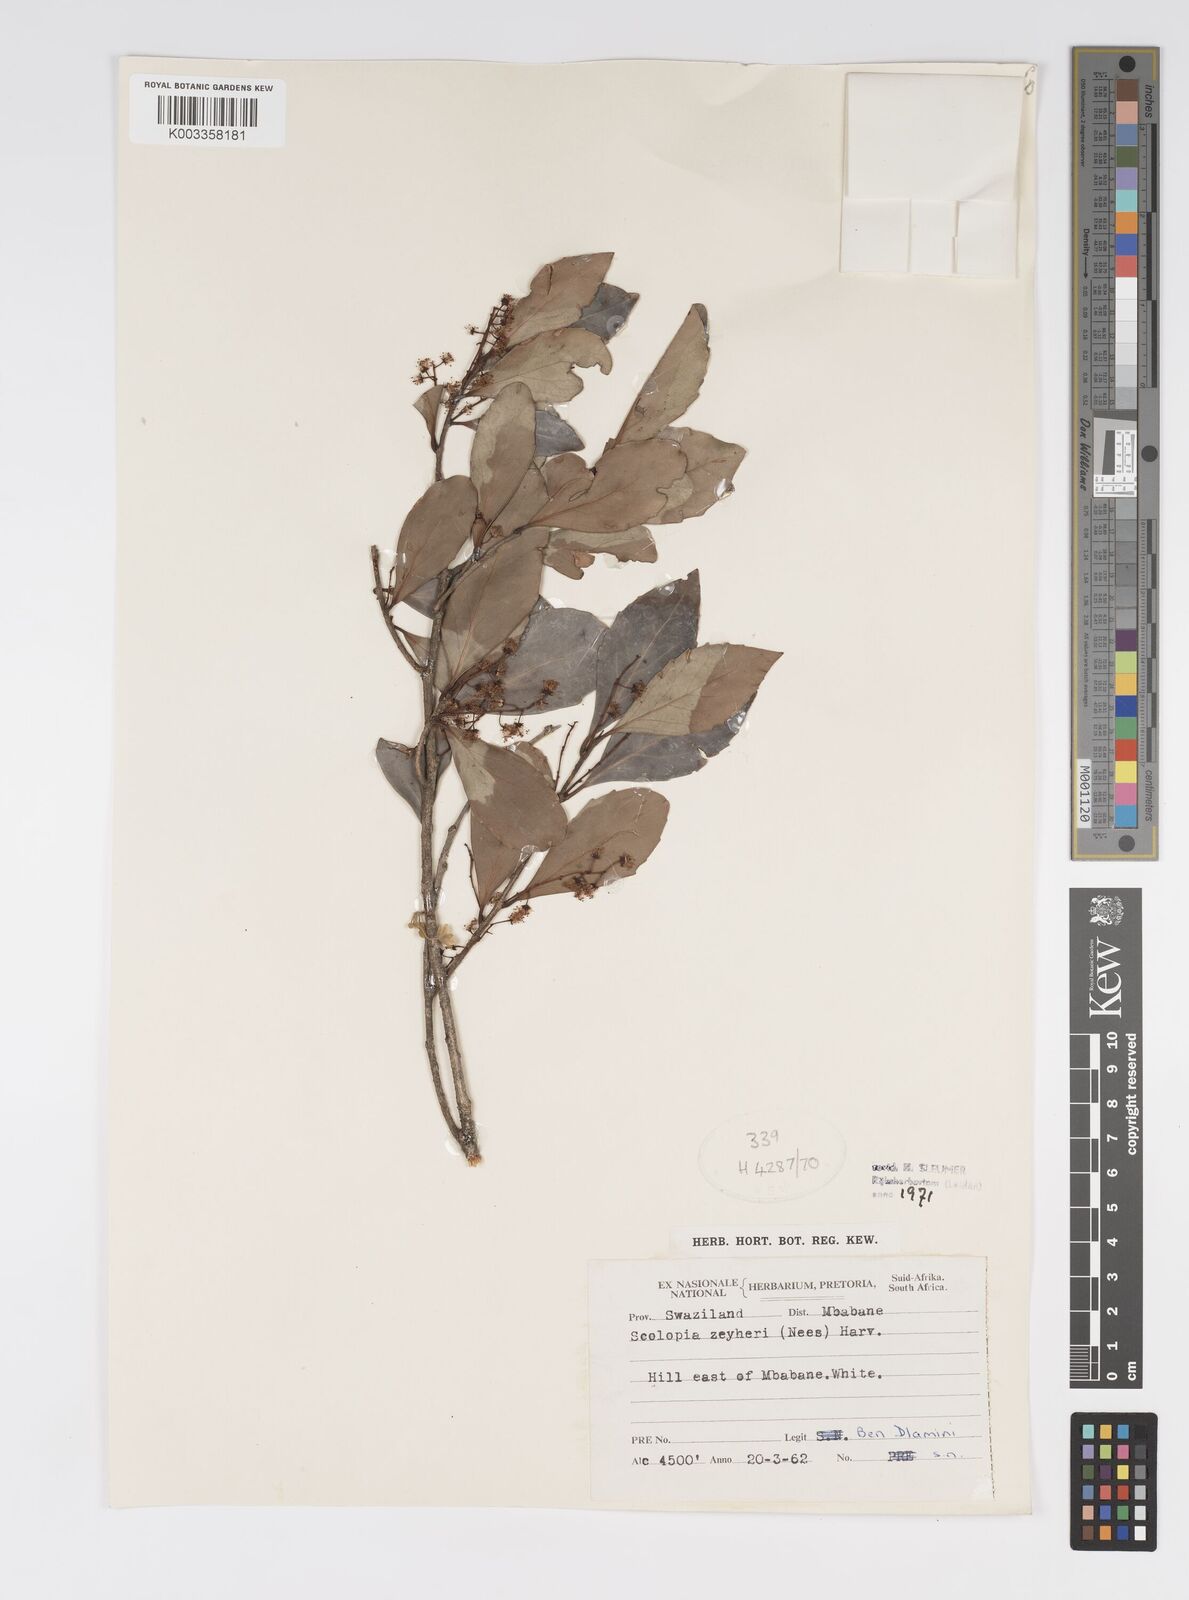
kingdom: Plantae
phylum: Tracheophyta
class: Magnoliopsida
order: Malpighiales
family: Salicaceae
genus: Scolopia
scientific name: Scolopia zeyheri
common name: Thorn pear
